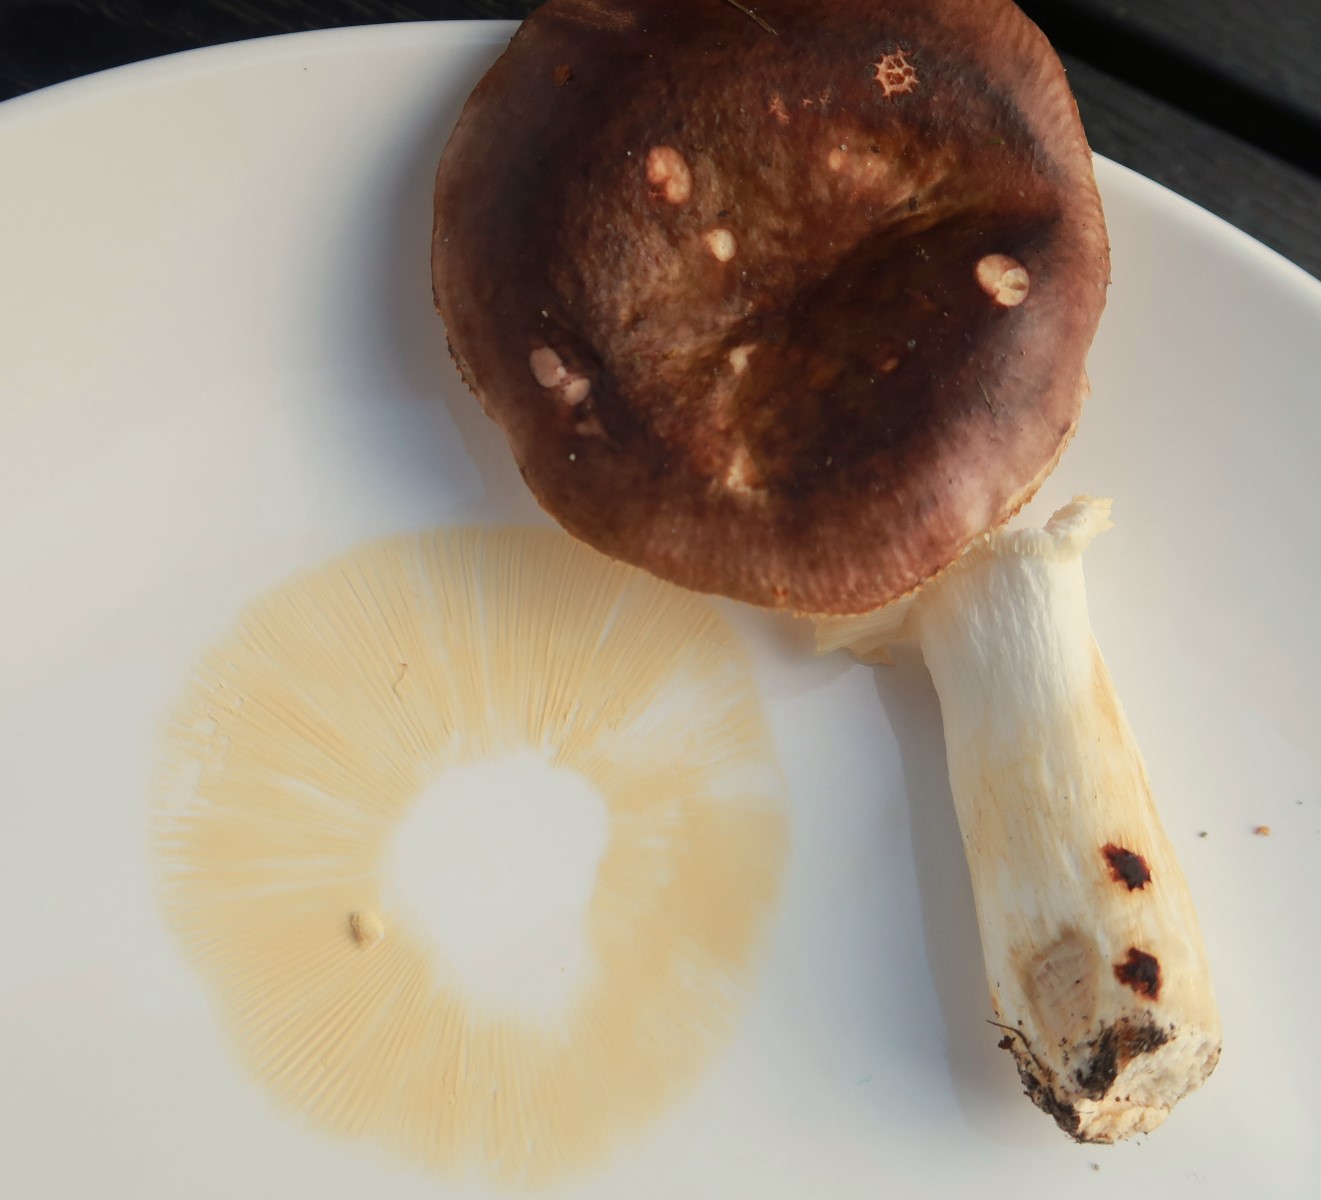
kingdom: Fungi
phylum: Basidiomycota
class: Agaricomycetes
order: Russulales
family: Russulaceae
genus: Russula
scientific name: Russula puellaris
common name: gulstokket skørhat
